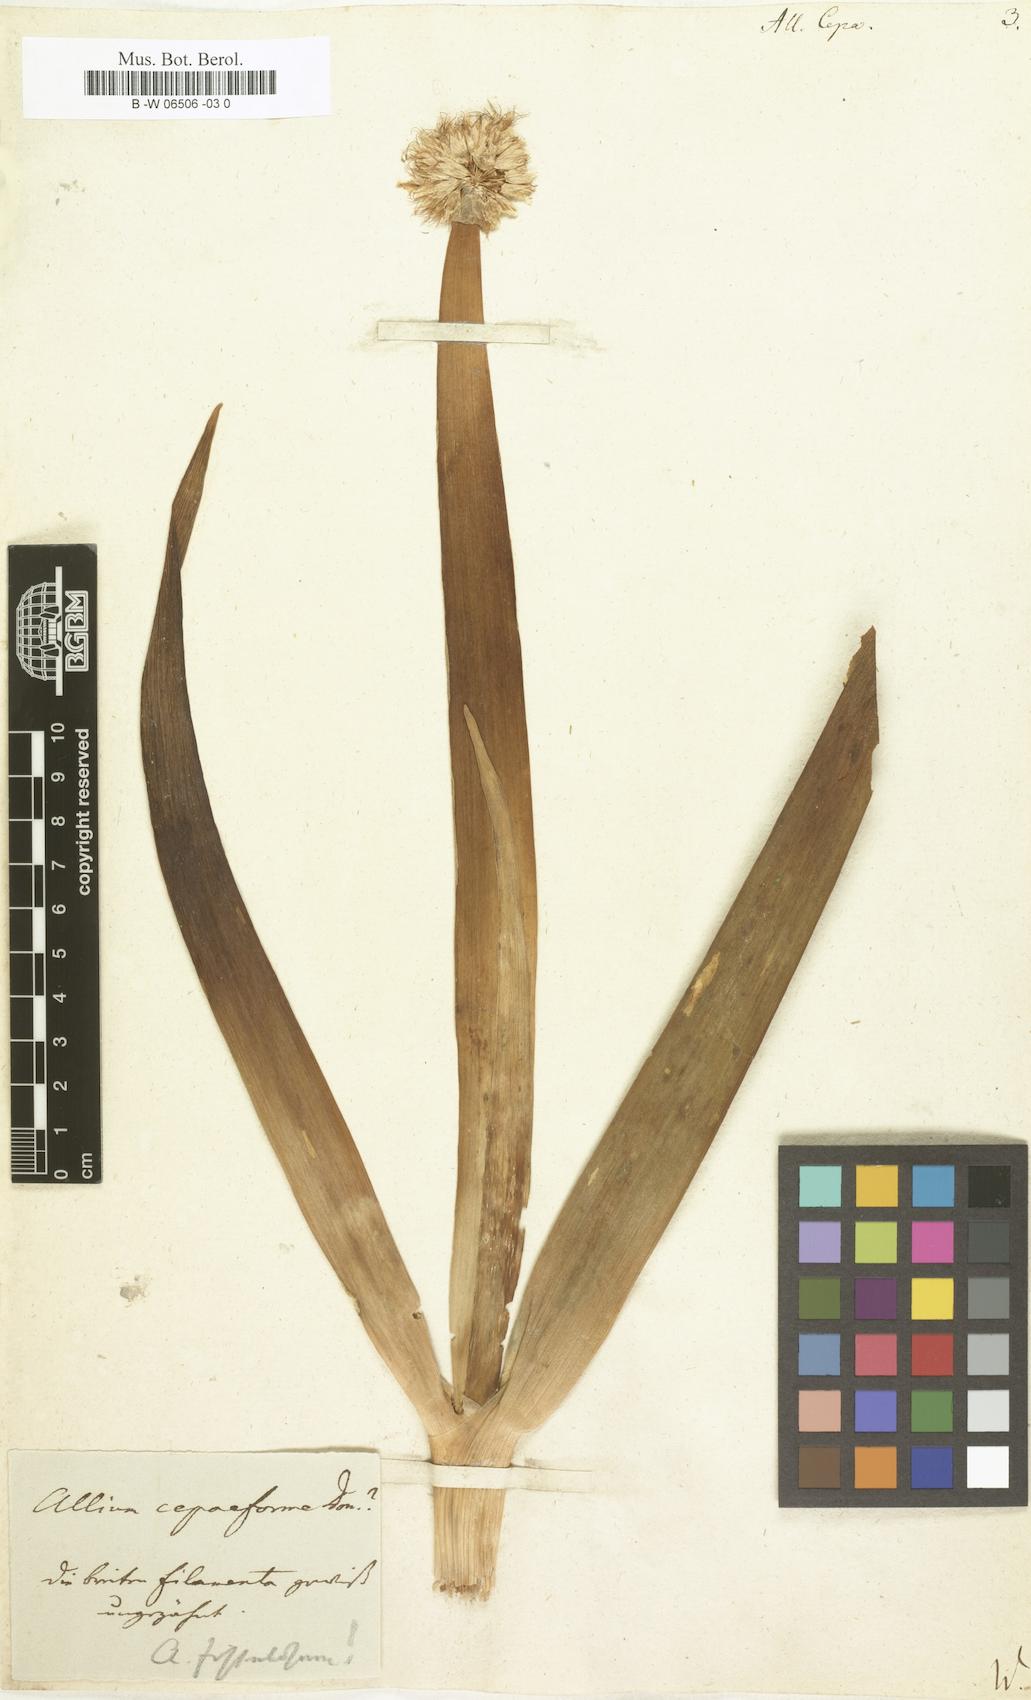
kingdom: Plantae
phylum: Tracheophyta
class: Liliopsida
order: Asparagales
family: Amaryllidaceae
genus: Allium
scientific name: Allium cepa
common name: Onion
